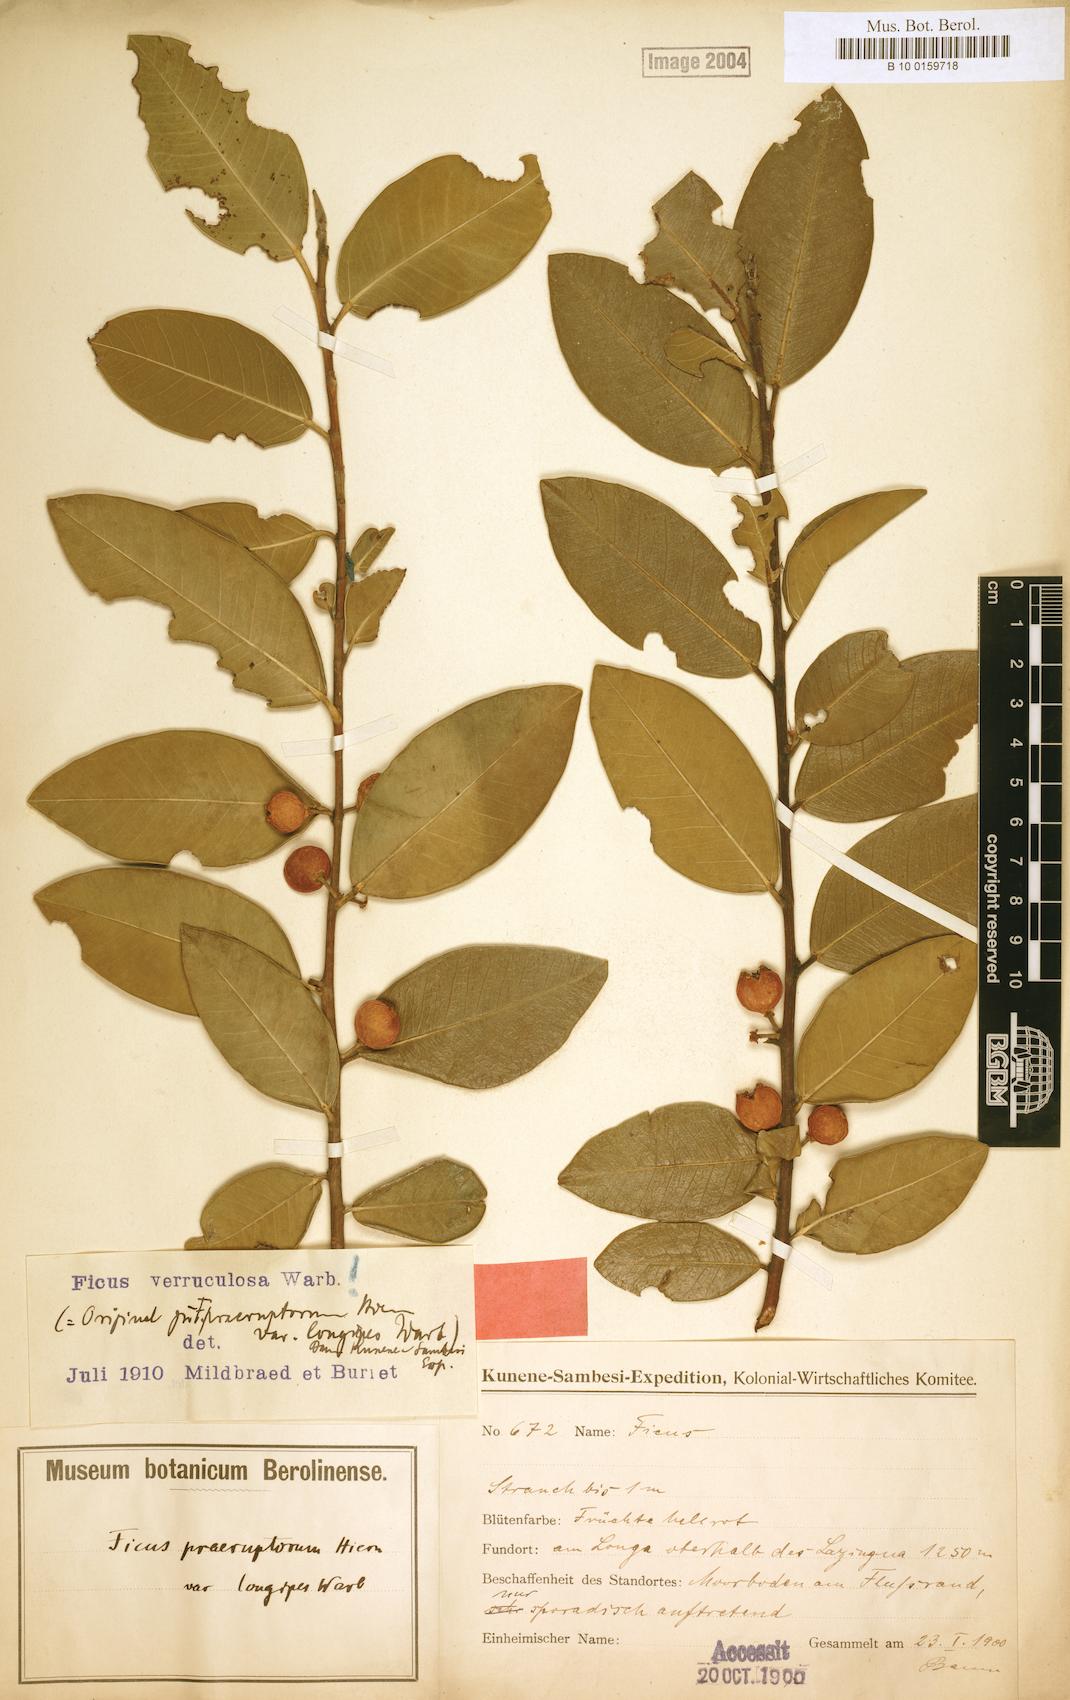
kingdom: Plantae
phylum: Tracheophyta
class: Magnoliopsida
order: Rosales
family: Moraceae
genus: Ficus
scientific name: Ficus verruculosa
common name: Water fig
